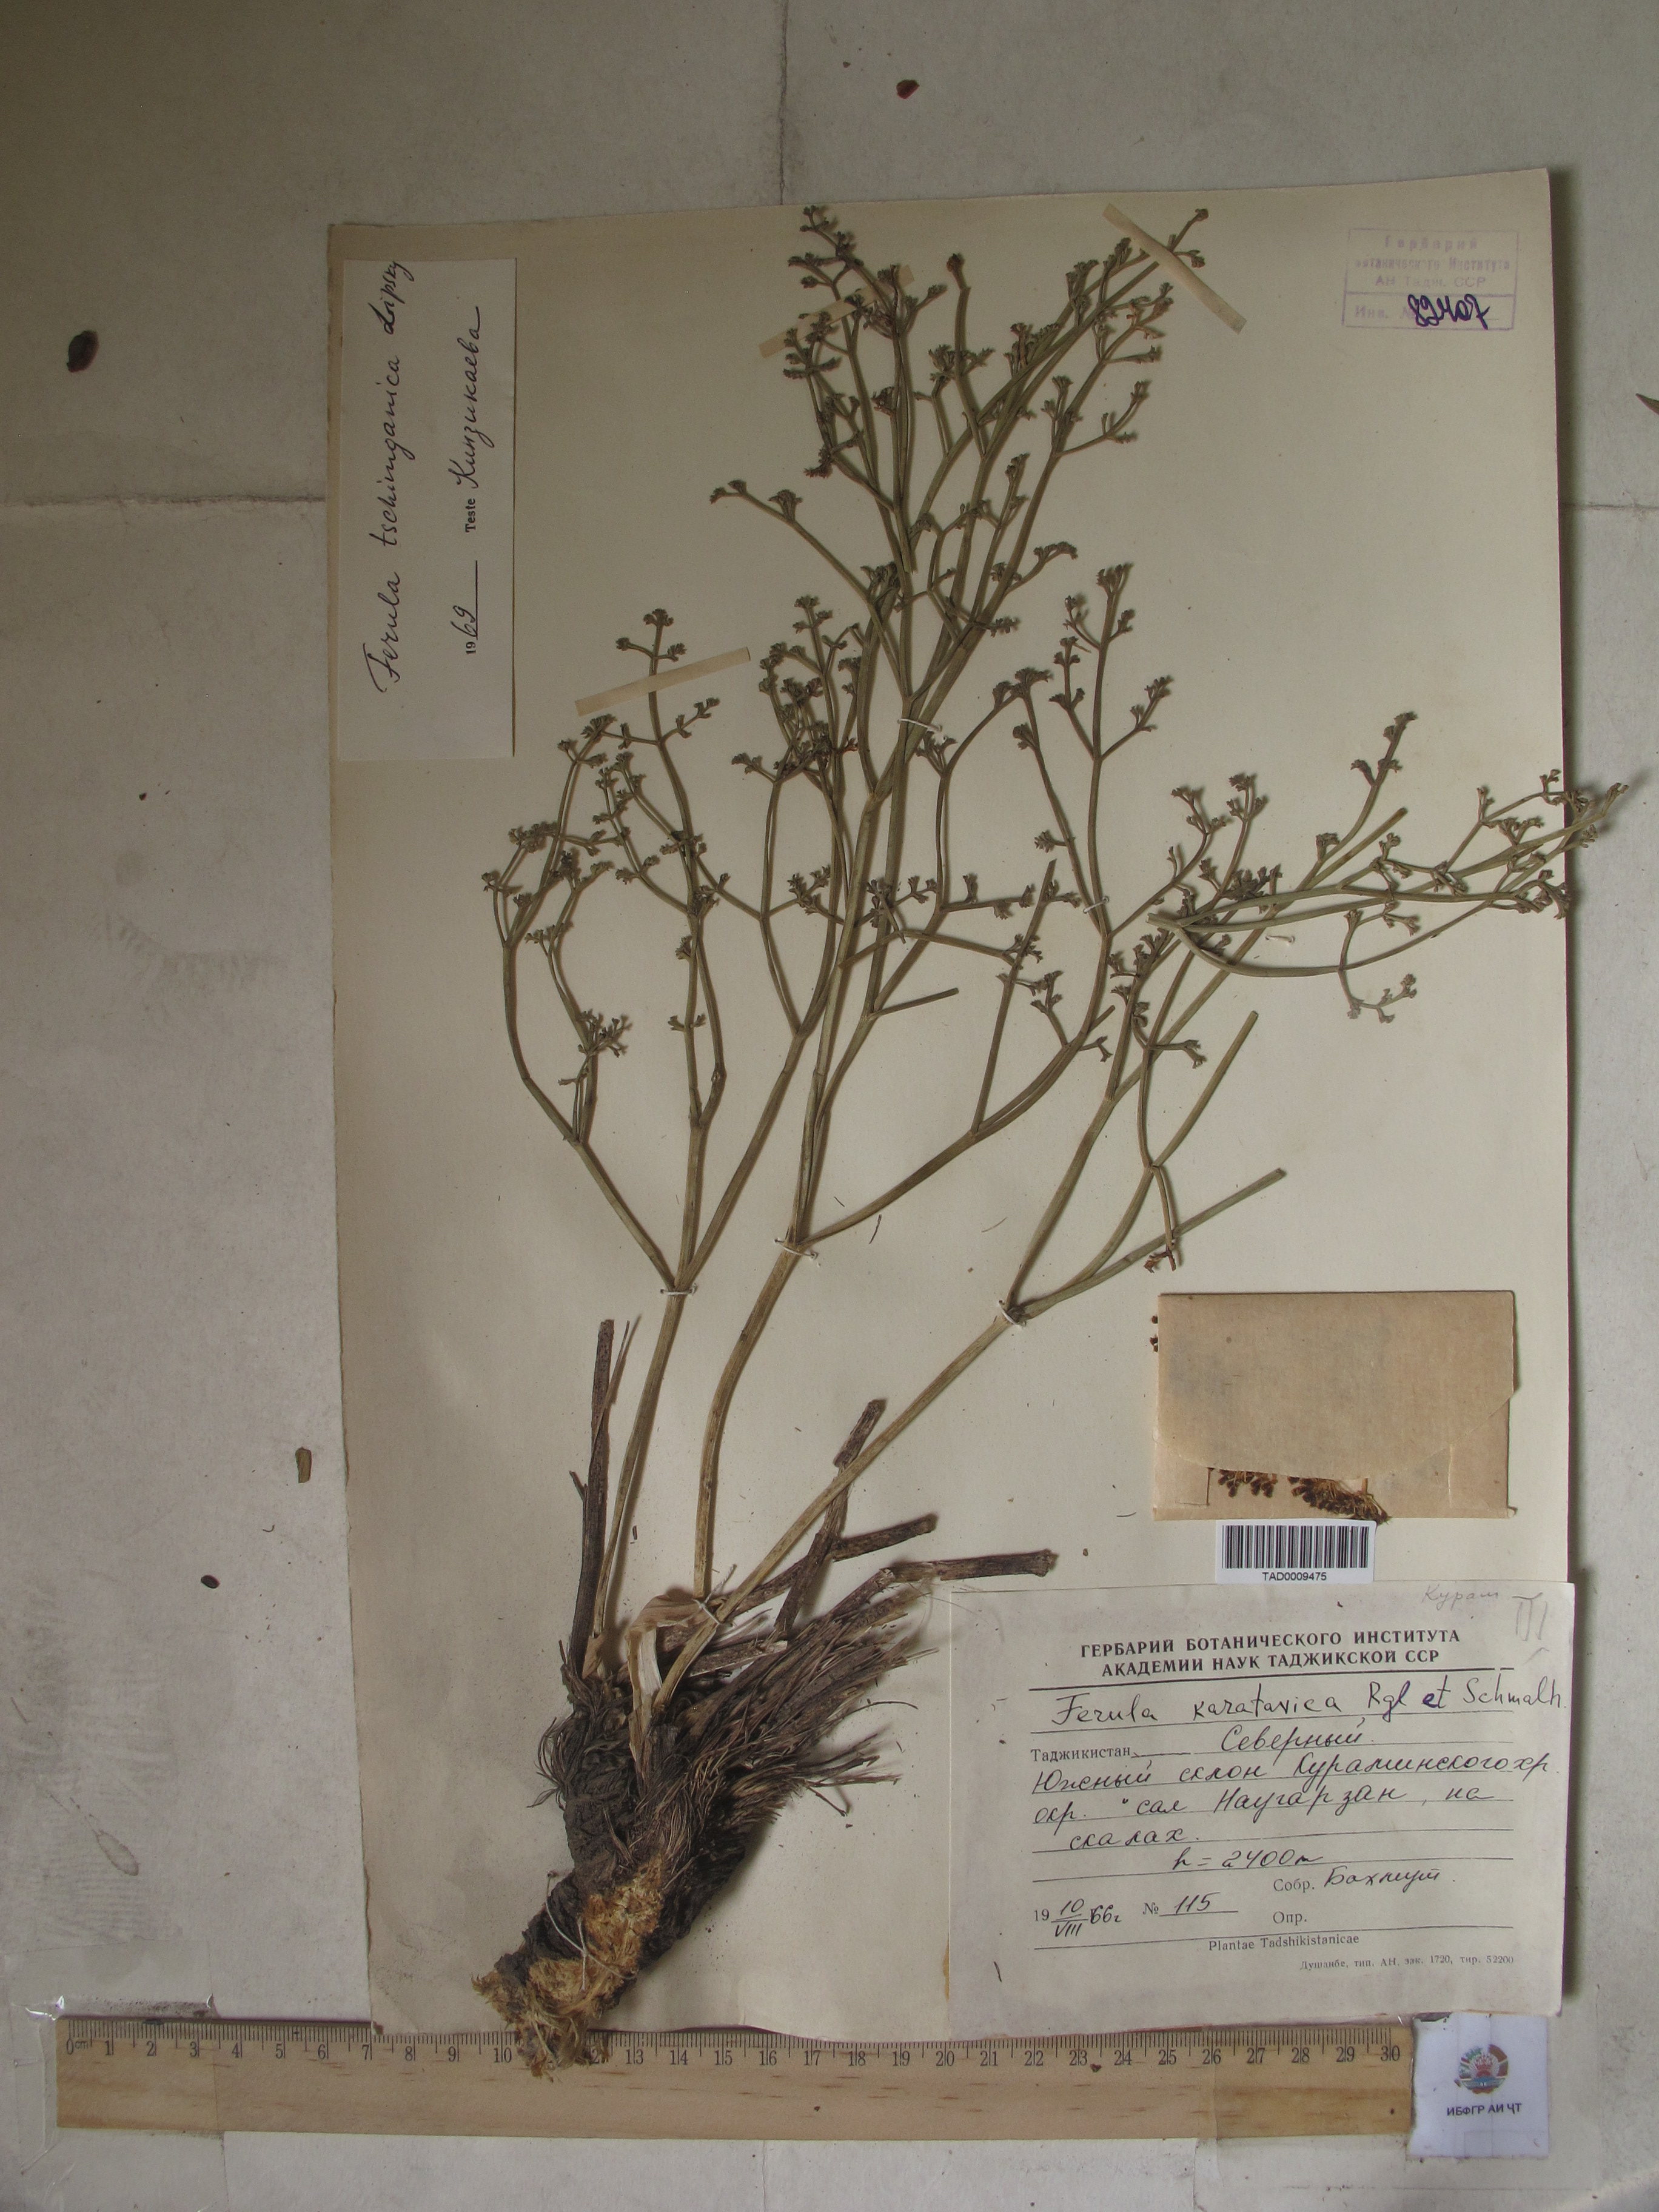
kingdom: Plantae
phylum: Tracheophyta
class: Magnoliopsida
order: Apiales
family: Apiaceae
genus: Ferula
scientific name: Ferula tschimganica
